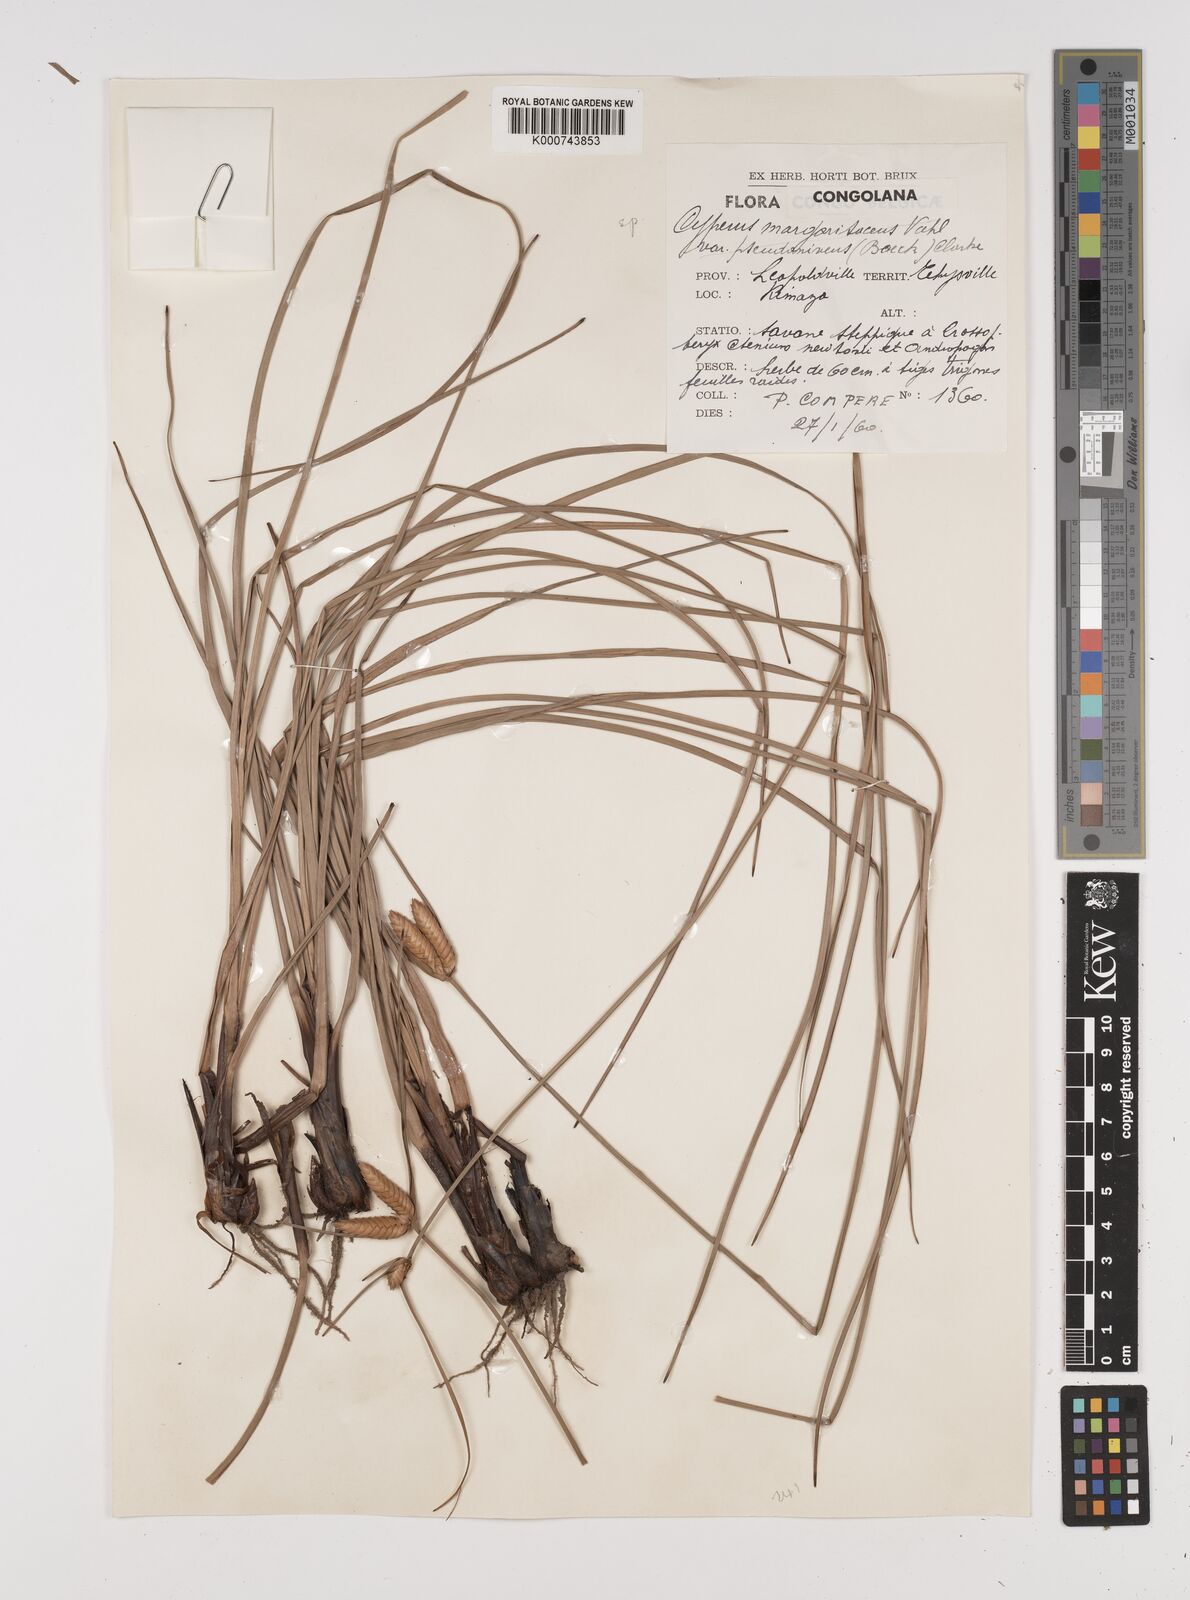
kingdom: Plantae
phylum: Tracheophyta
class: Liliopsida
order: Poales
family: Cyperaceae
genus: Cyperus
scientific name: Cyperus margaritaceus
